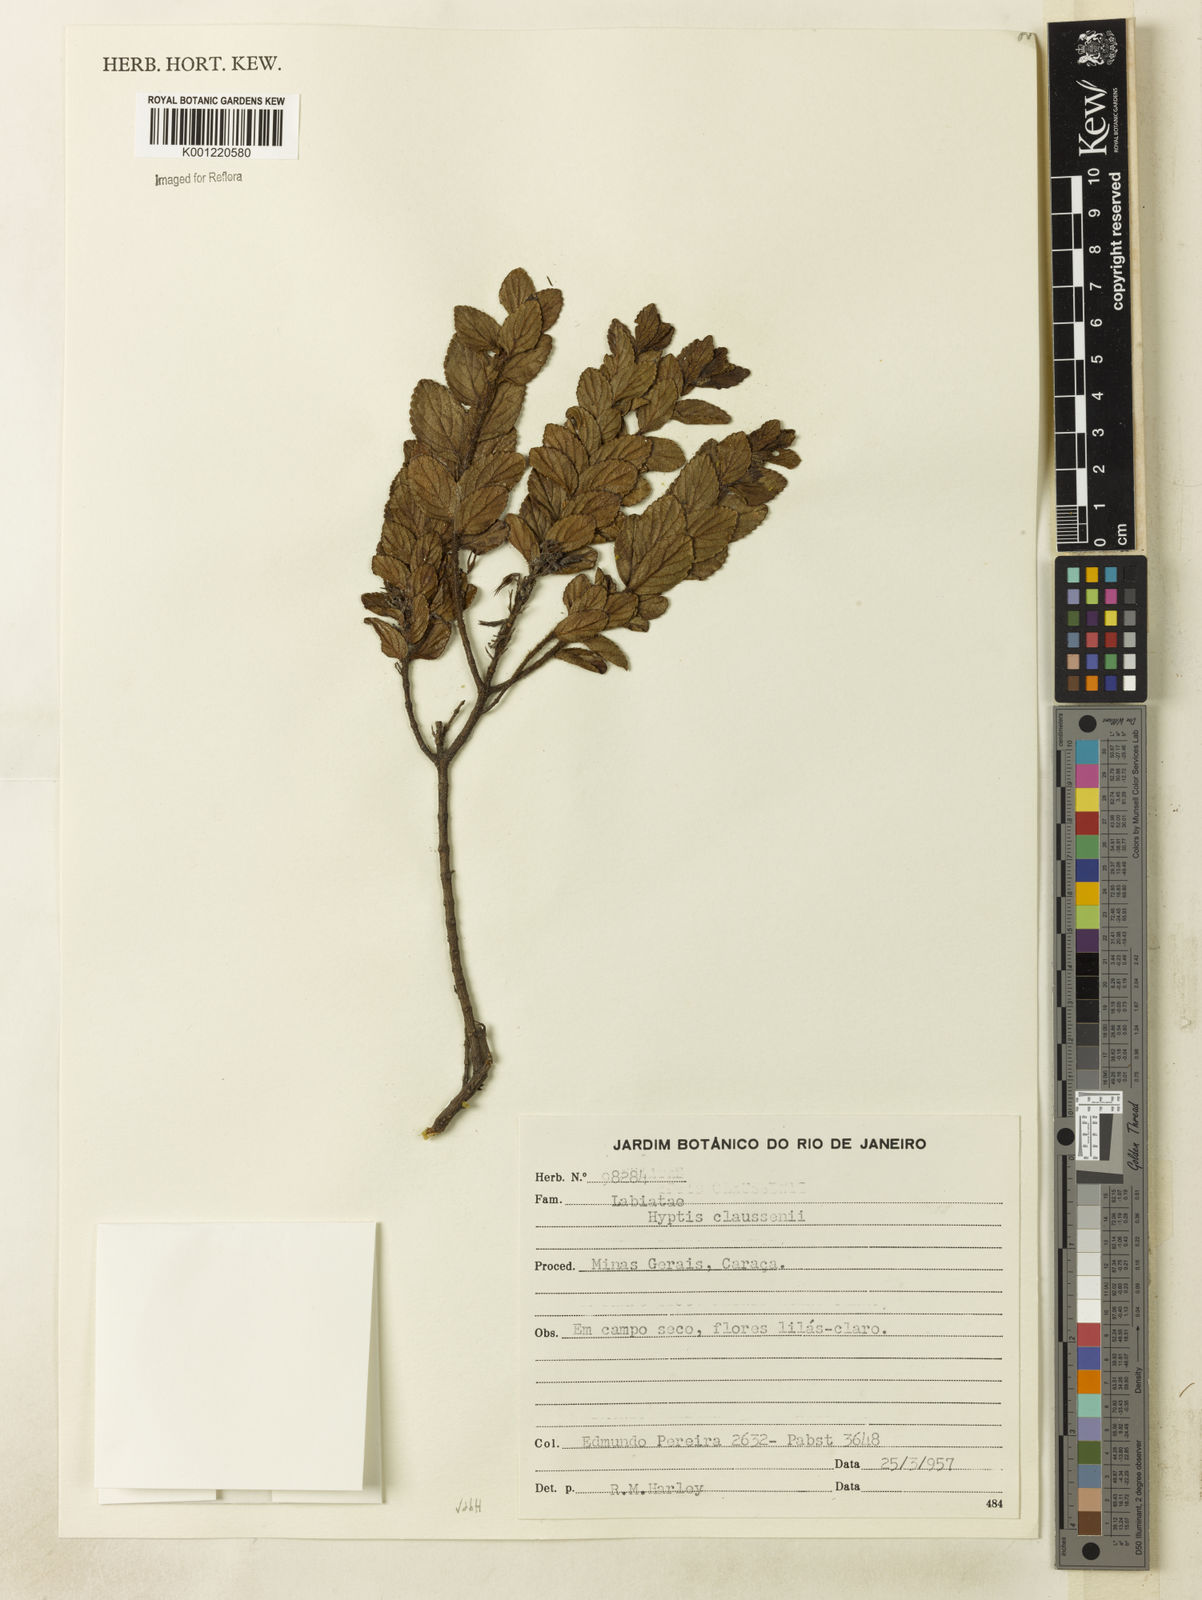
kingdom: Plantae
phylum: Tracheophyta
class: Magnoliopsida
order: Lamiales
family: Lamiaceae
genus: Hyptidendron
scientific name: Hyptidendron claussenii
